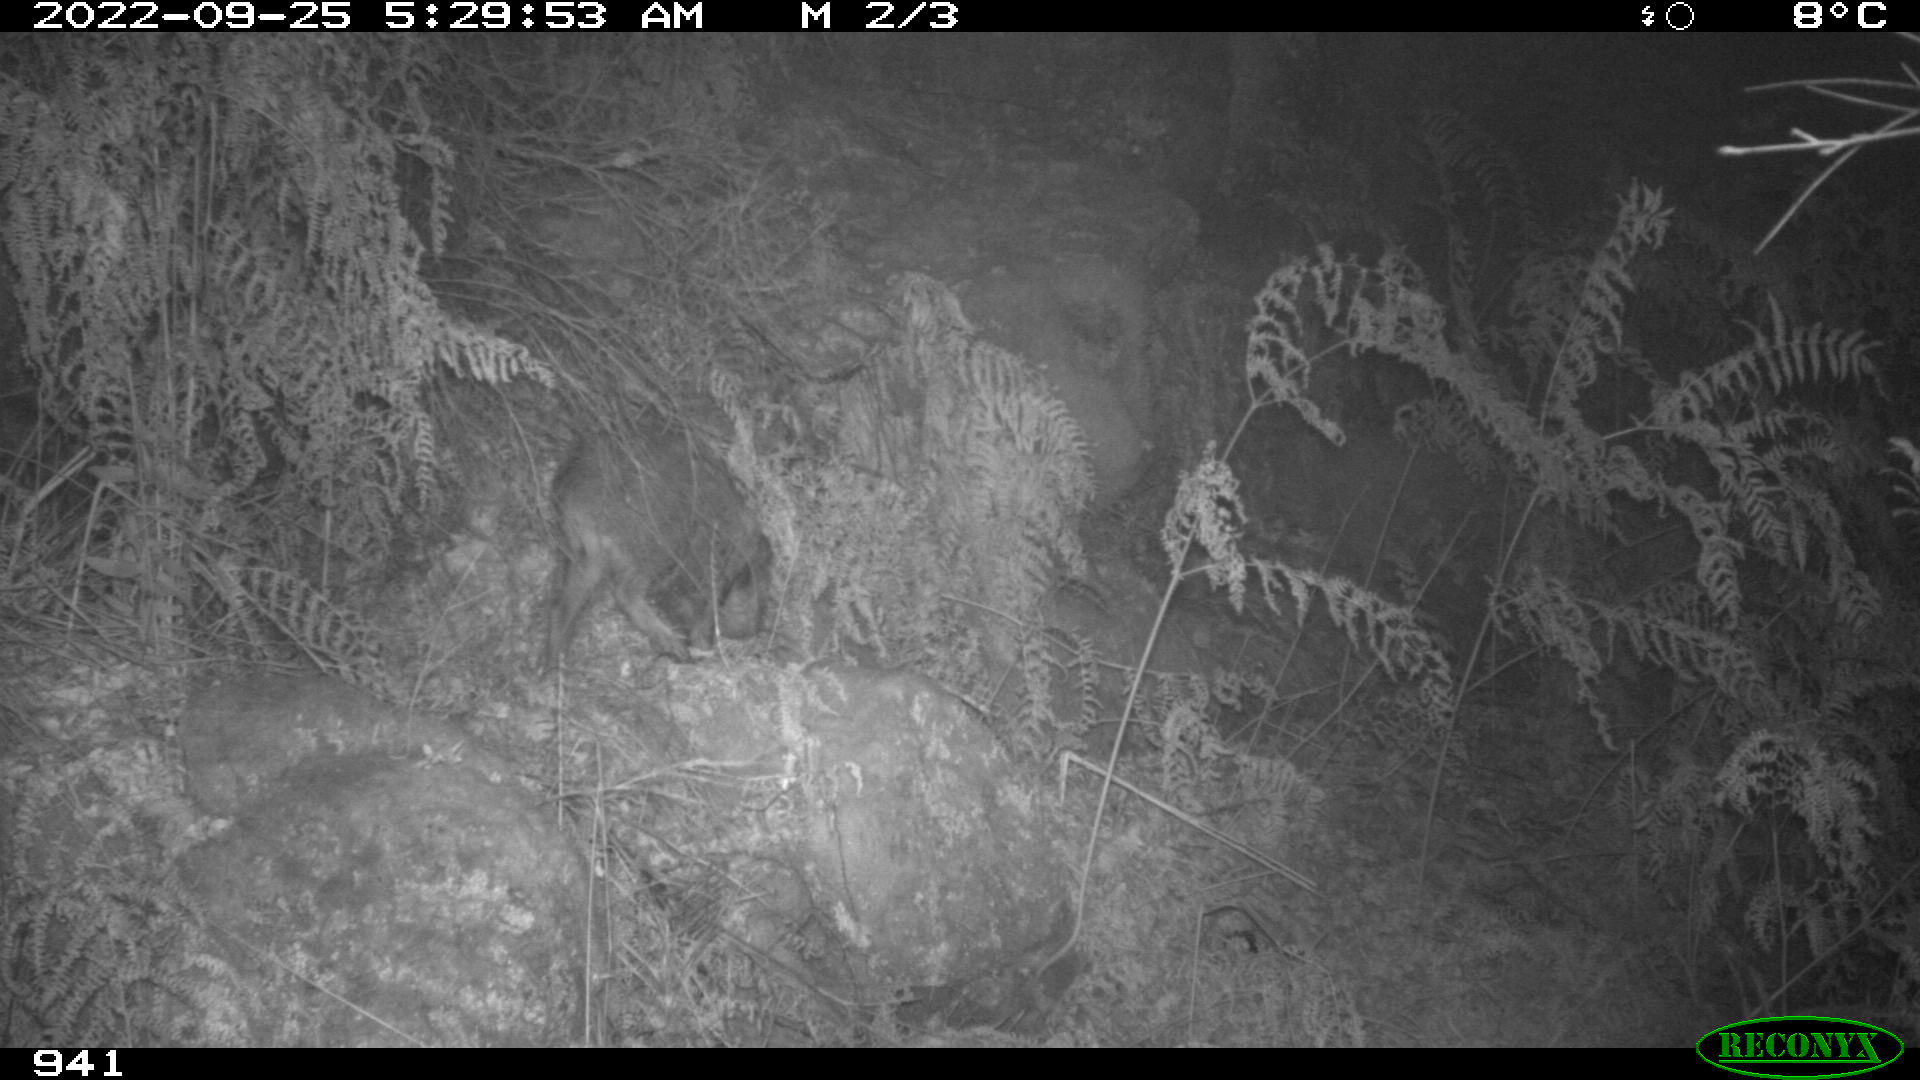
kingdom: Animalia
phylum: Chordata
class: Mammalia
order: Artiodactyla
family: Suidae
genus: Sus
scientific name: Sus scrofa
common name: Wild boar
